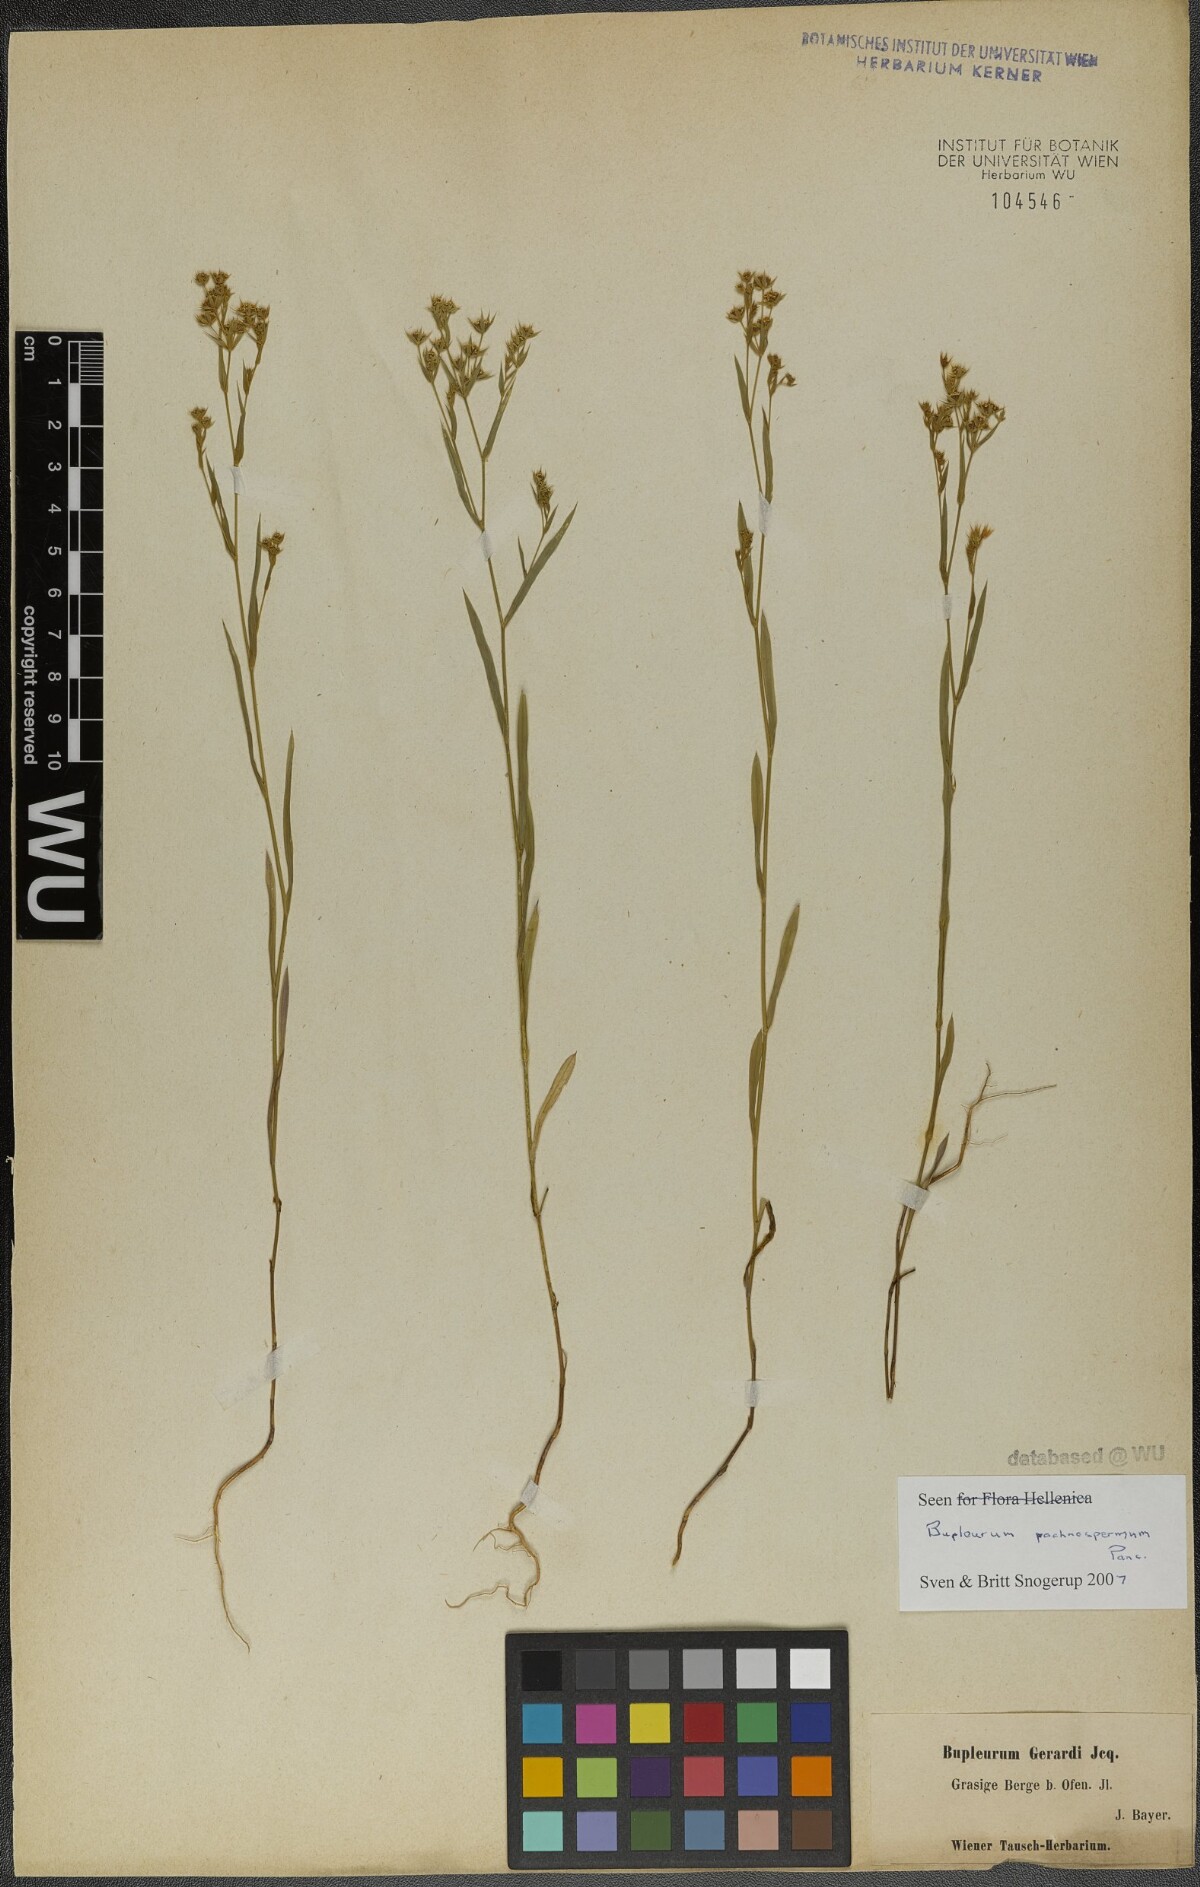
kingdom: Plantae
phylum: Tracheophyta
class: Magnoliopsida
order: Apiales
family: Apiaceae
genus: Bupleurum
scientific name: Bupleurum pachnospermum
